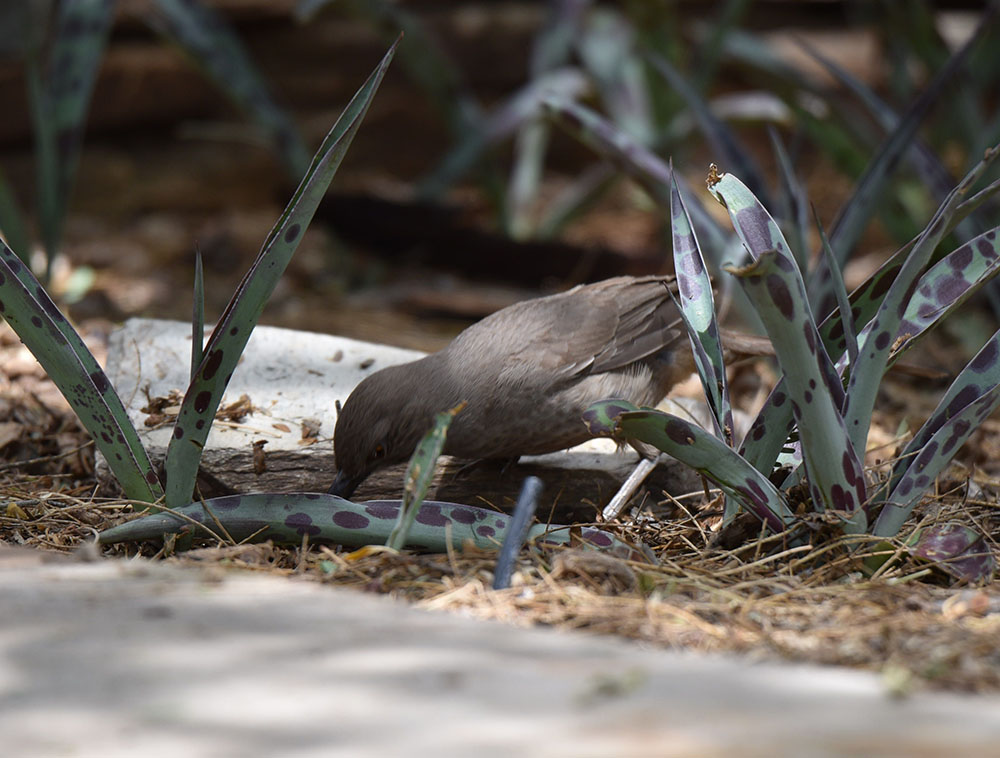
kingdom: Animalia
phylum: Chordata
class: Aves
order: Passeriformes
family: Mimidae
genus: Toxostoma
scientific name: Toxostoma curvirostre
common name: Curve-billed thrasher
